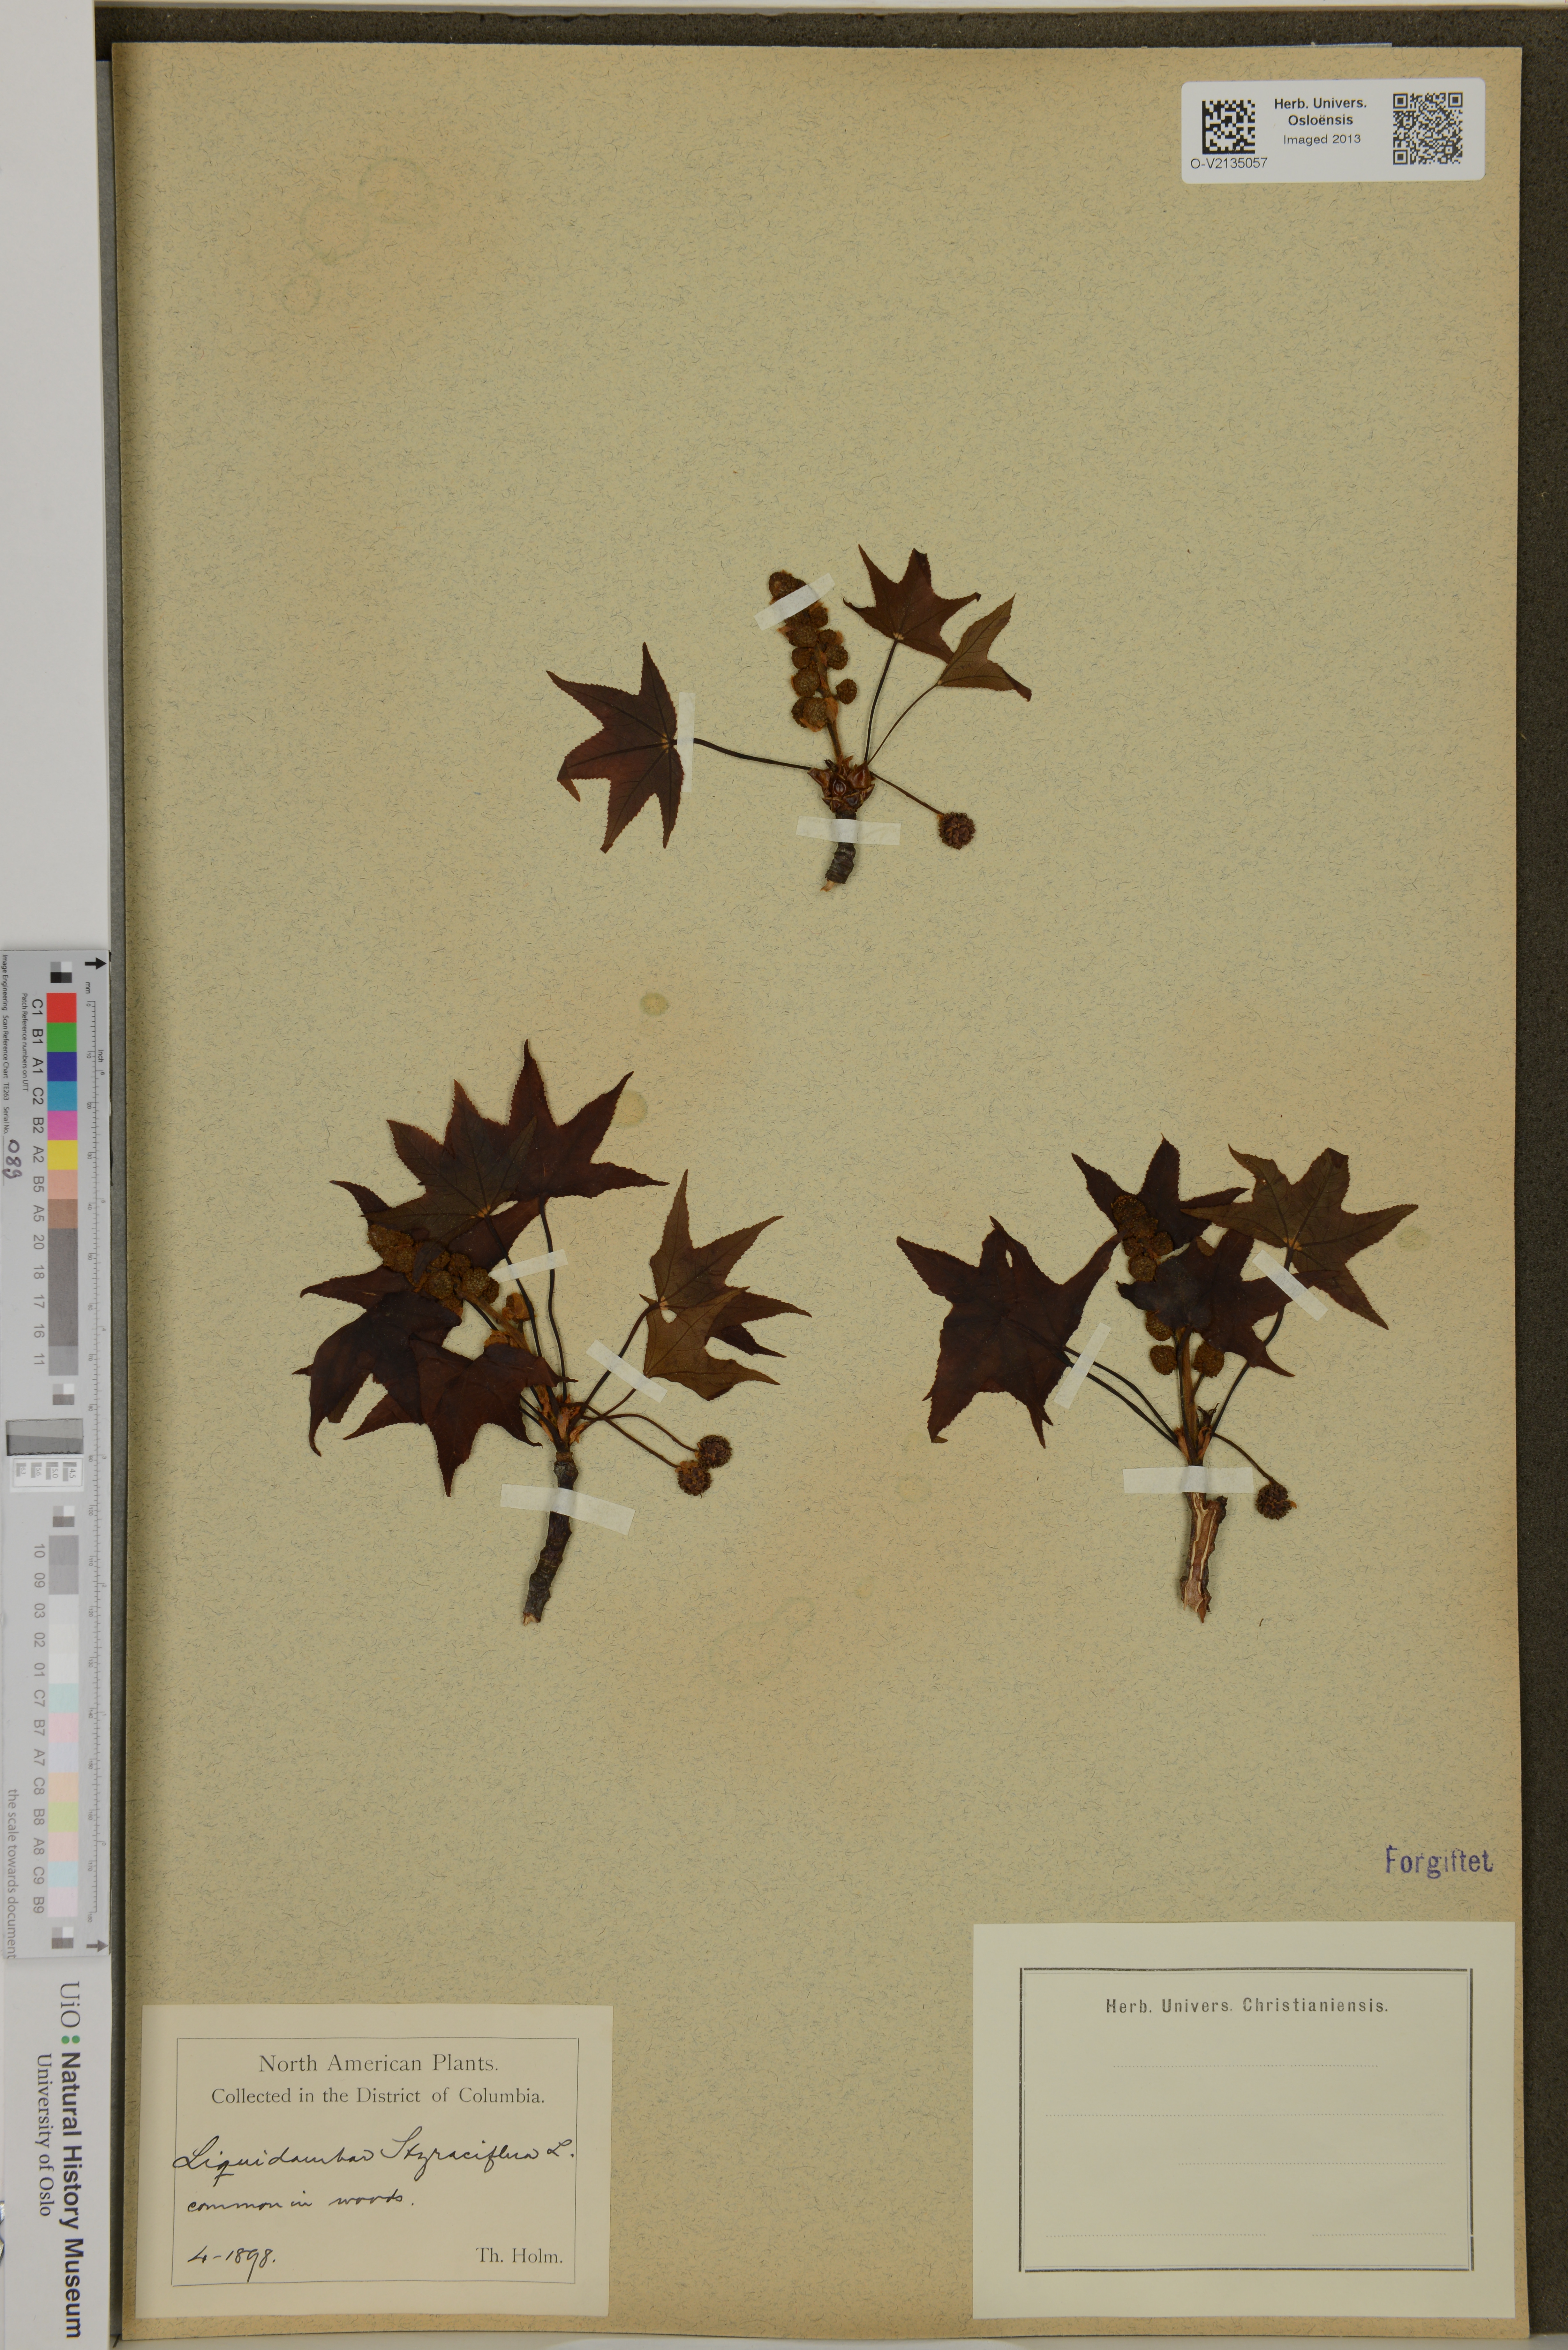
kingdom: Plantae
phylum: Tracheophyta
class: Magnoliopsida
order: Saxifragales
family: Altingiaceae
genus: Liquidambar
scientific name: Liquidambar styraciflua
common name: Sweet gum
